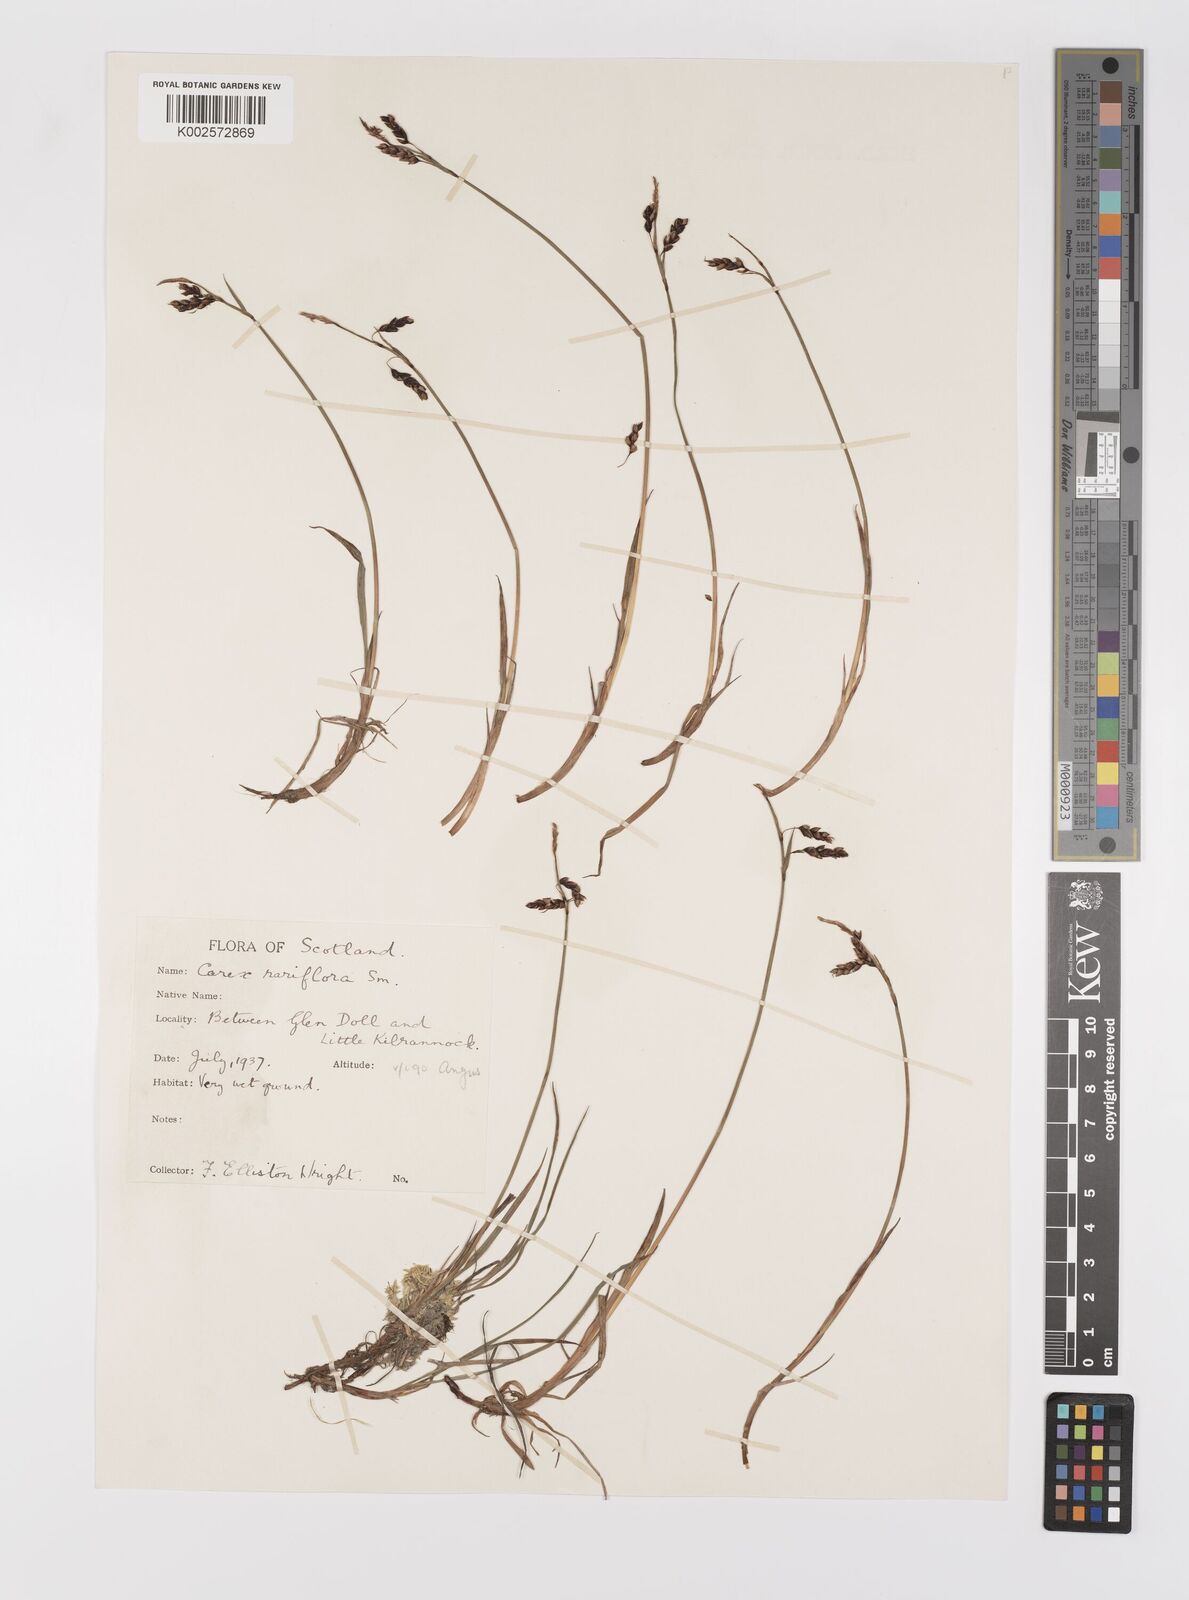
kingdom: Plantae
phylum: Tracheophyta
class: Liliopsida
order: Poales
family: Cyperaceae
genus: Carex
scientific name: Carex rariflora
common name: Loose-flowered alpine sedge
